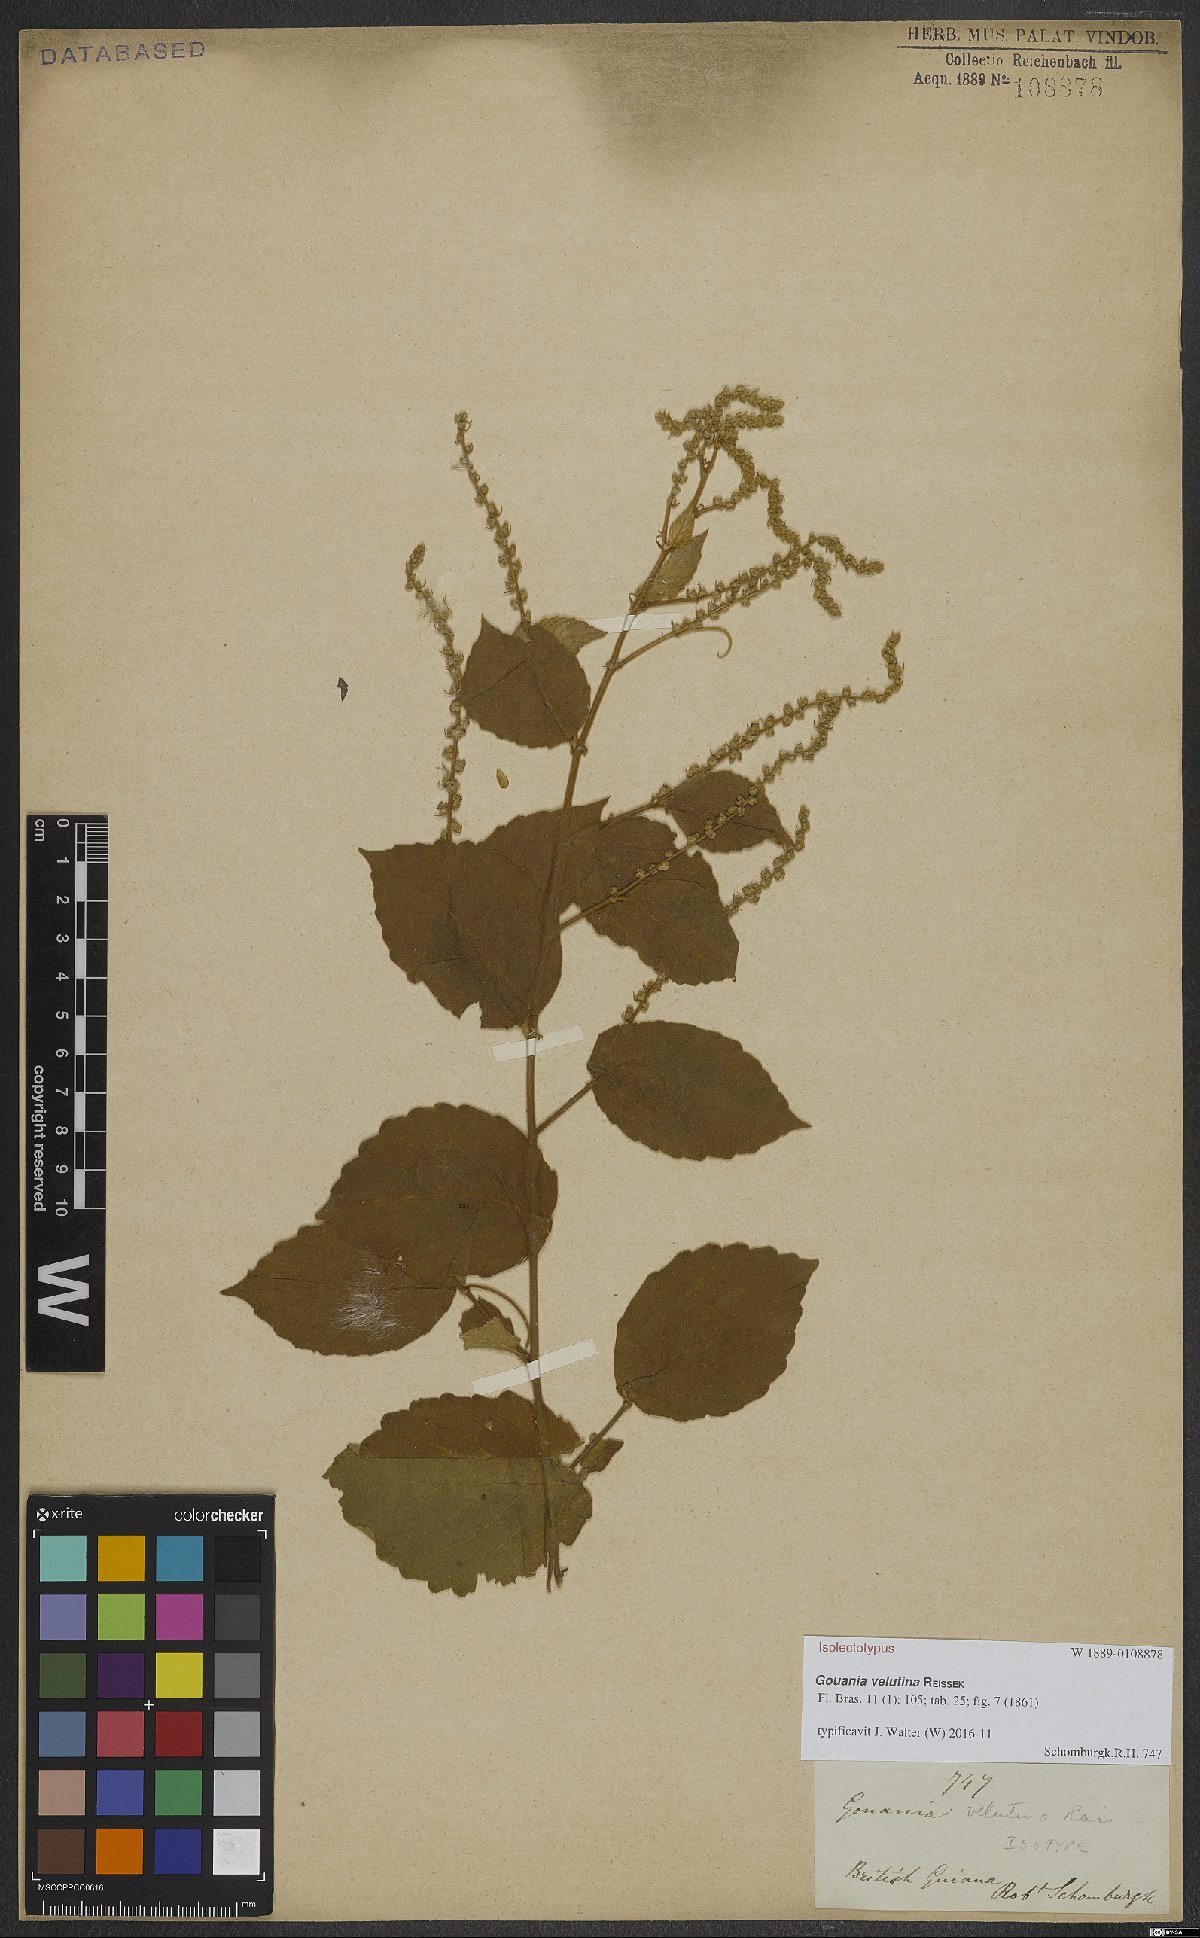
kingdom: Plantae
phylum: Tracheophyta
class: Magnoliopsida
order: Rosales
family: Rhamnaceae
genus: Gouania
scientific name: Gouania velutina
